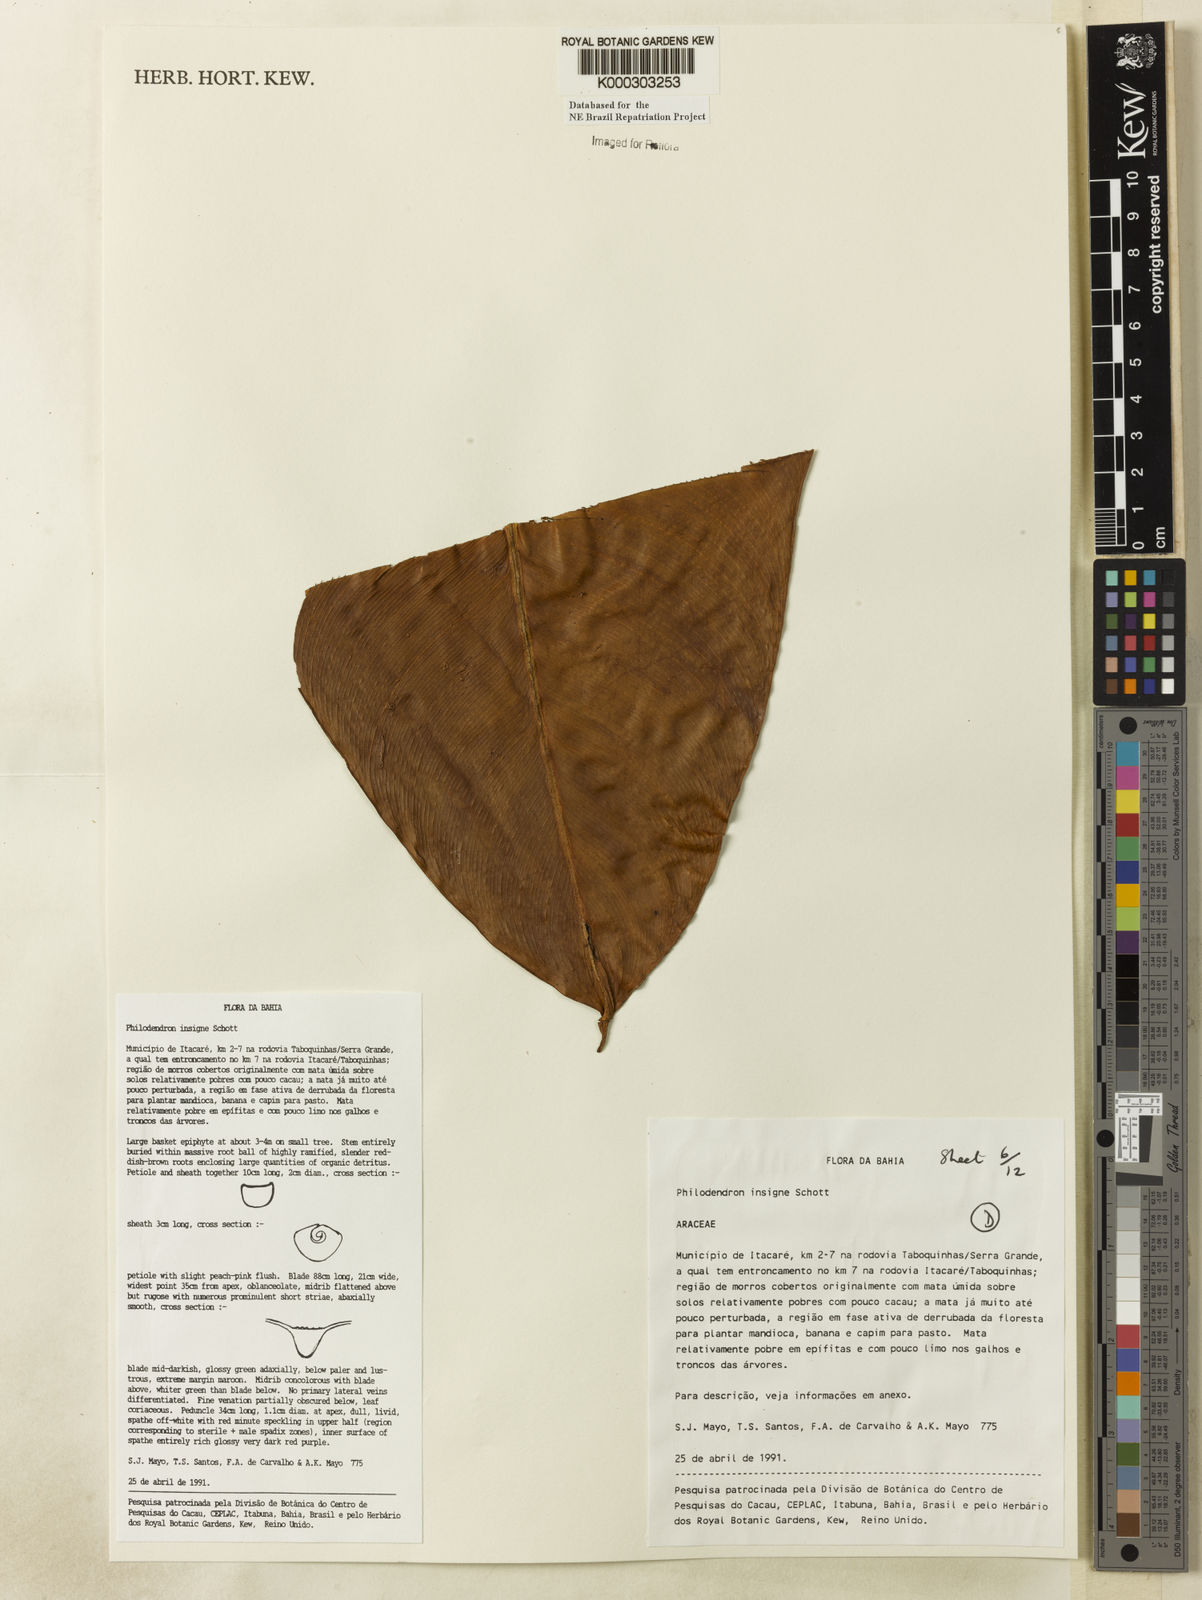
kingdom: Plantae
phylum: Tracheophyta
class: Liliopsida
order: Alismatales
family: Araceae
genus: Philodendron
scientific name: Philodendron insigne
